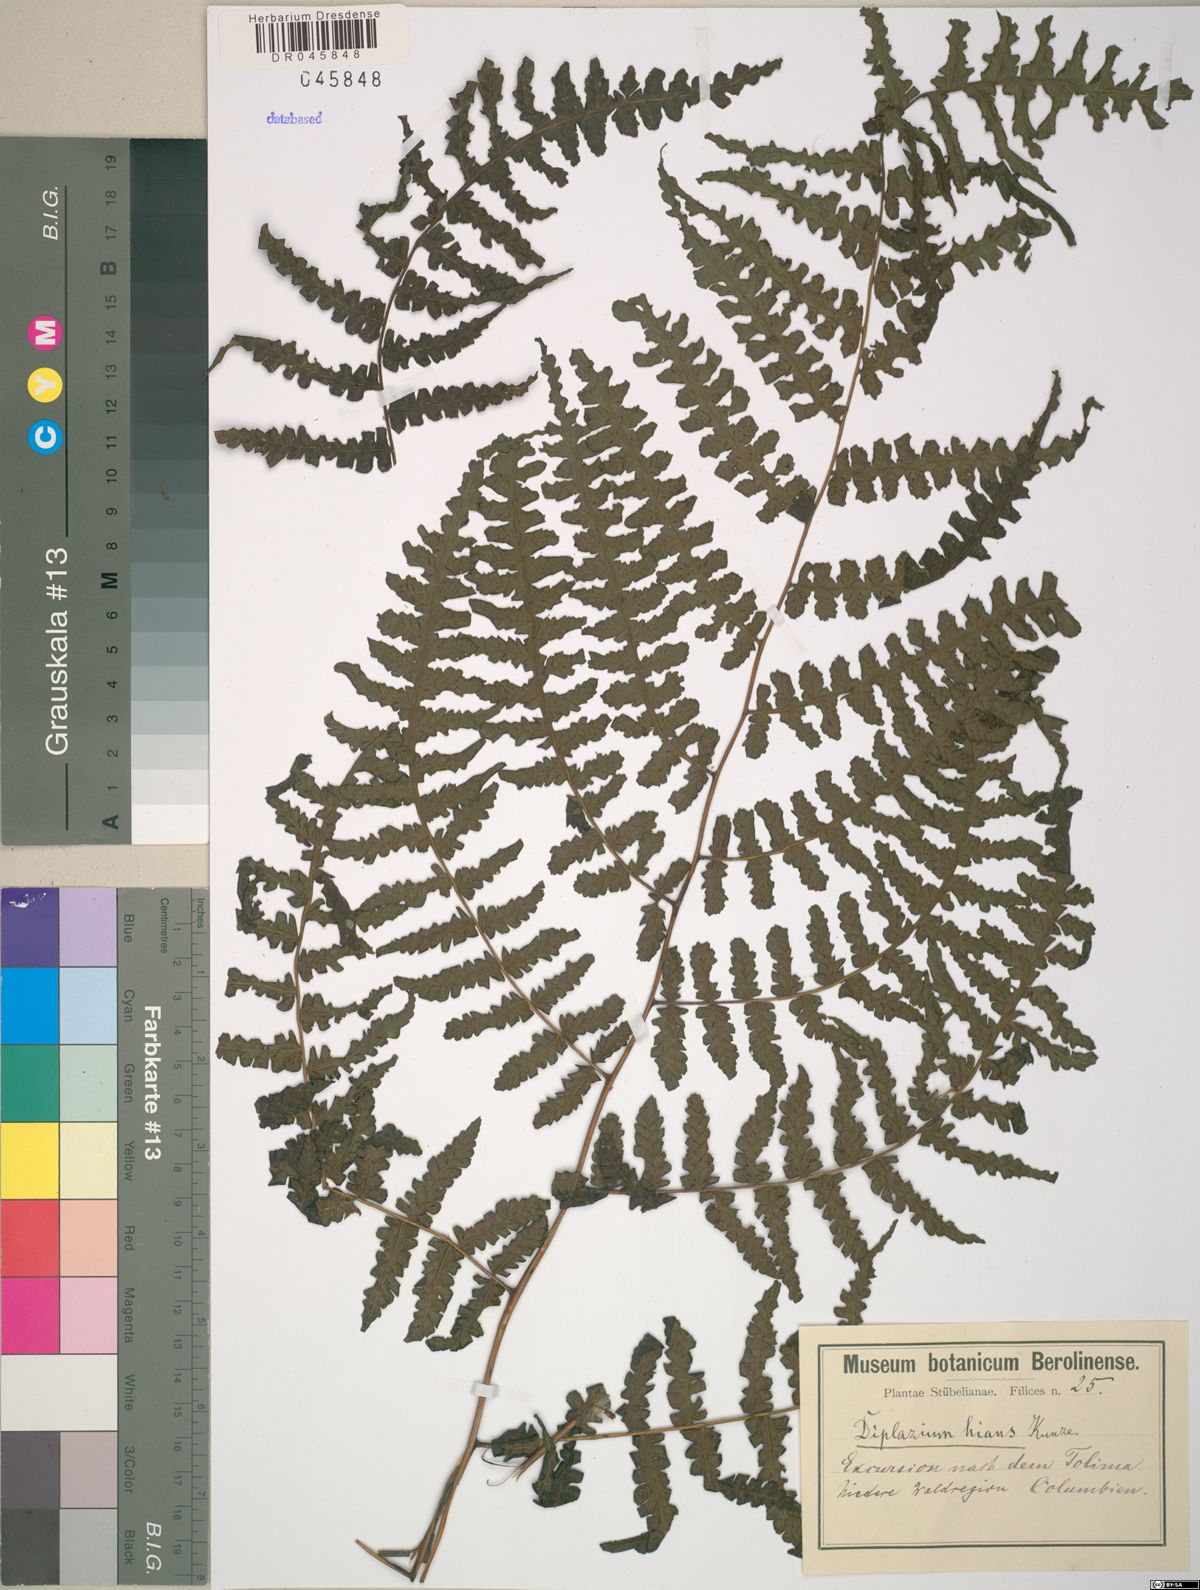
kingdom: Plantae
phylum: Tracheophyta
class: Polypodiopsida
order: Polypodiales
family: Athyriaceae
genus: Diplazium
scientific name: Diplazium hians
